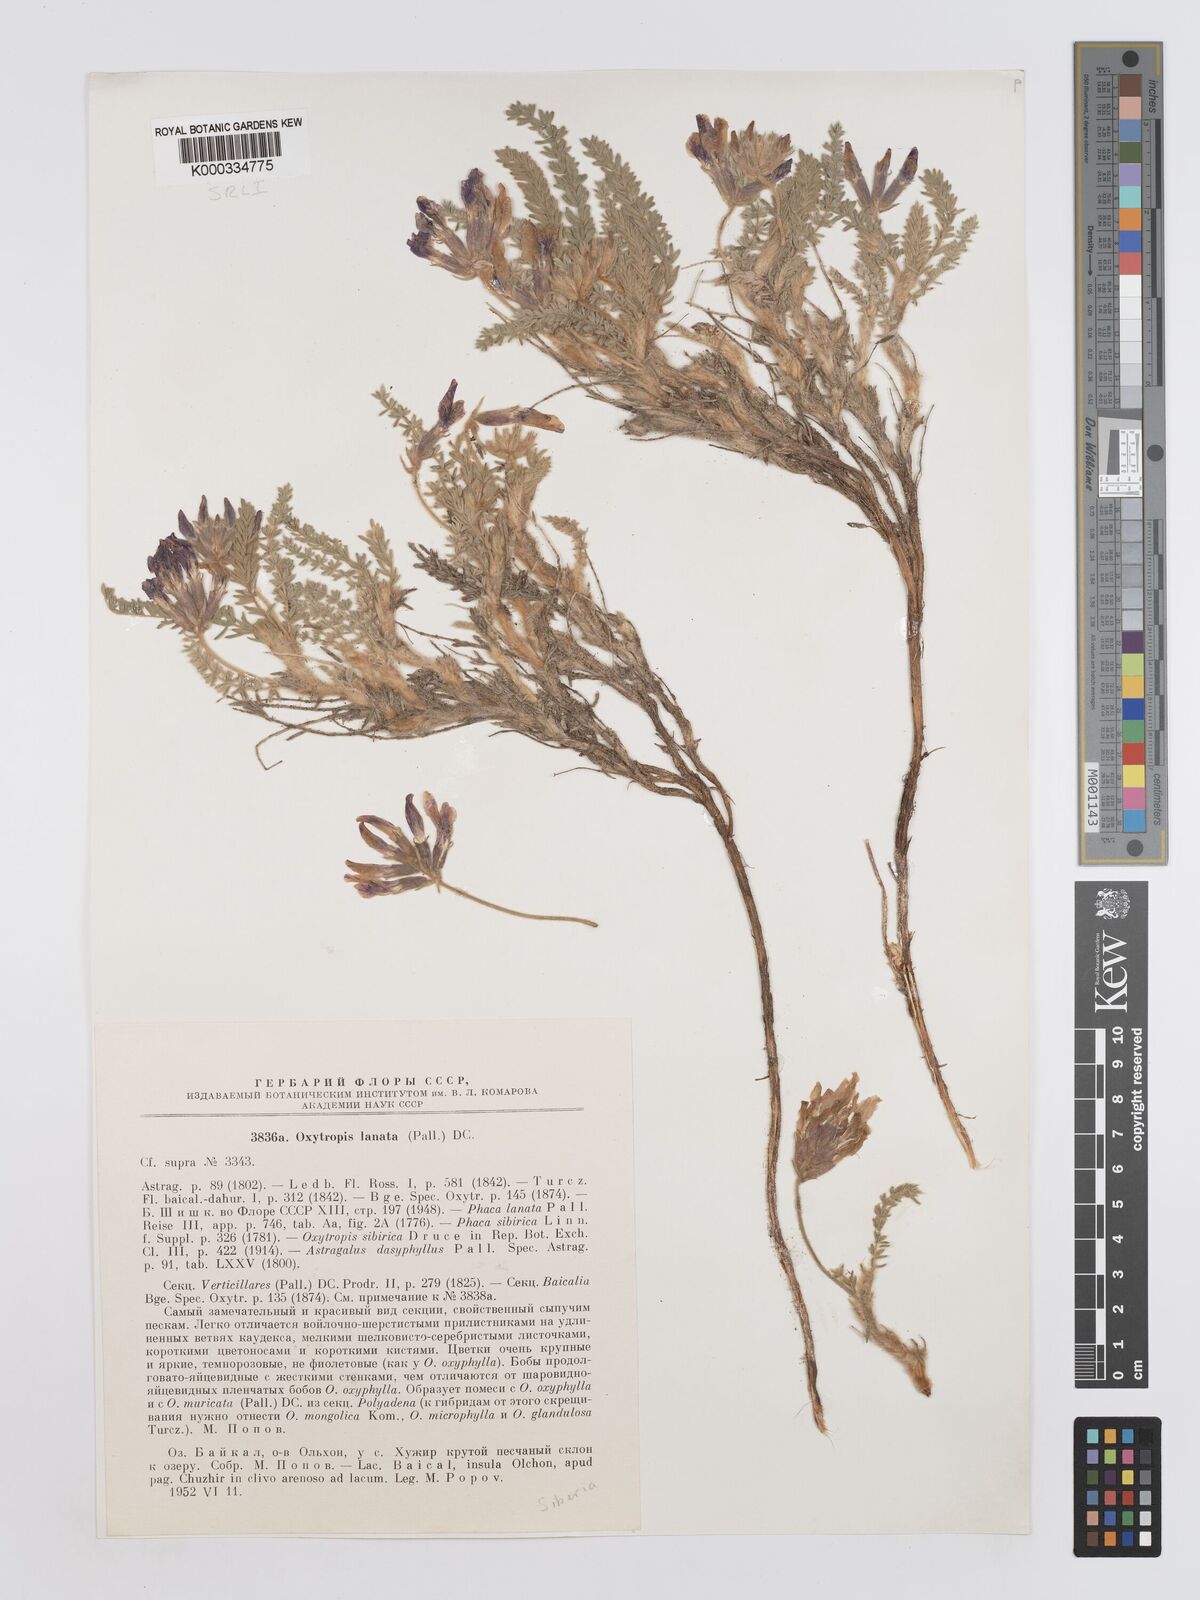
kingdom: Plantae
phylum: Tracheophyta
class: Magnoliopsida
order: Fabales
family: Fabaceae
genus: Oxytropis
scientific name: Oxytropis lanata
